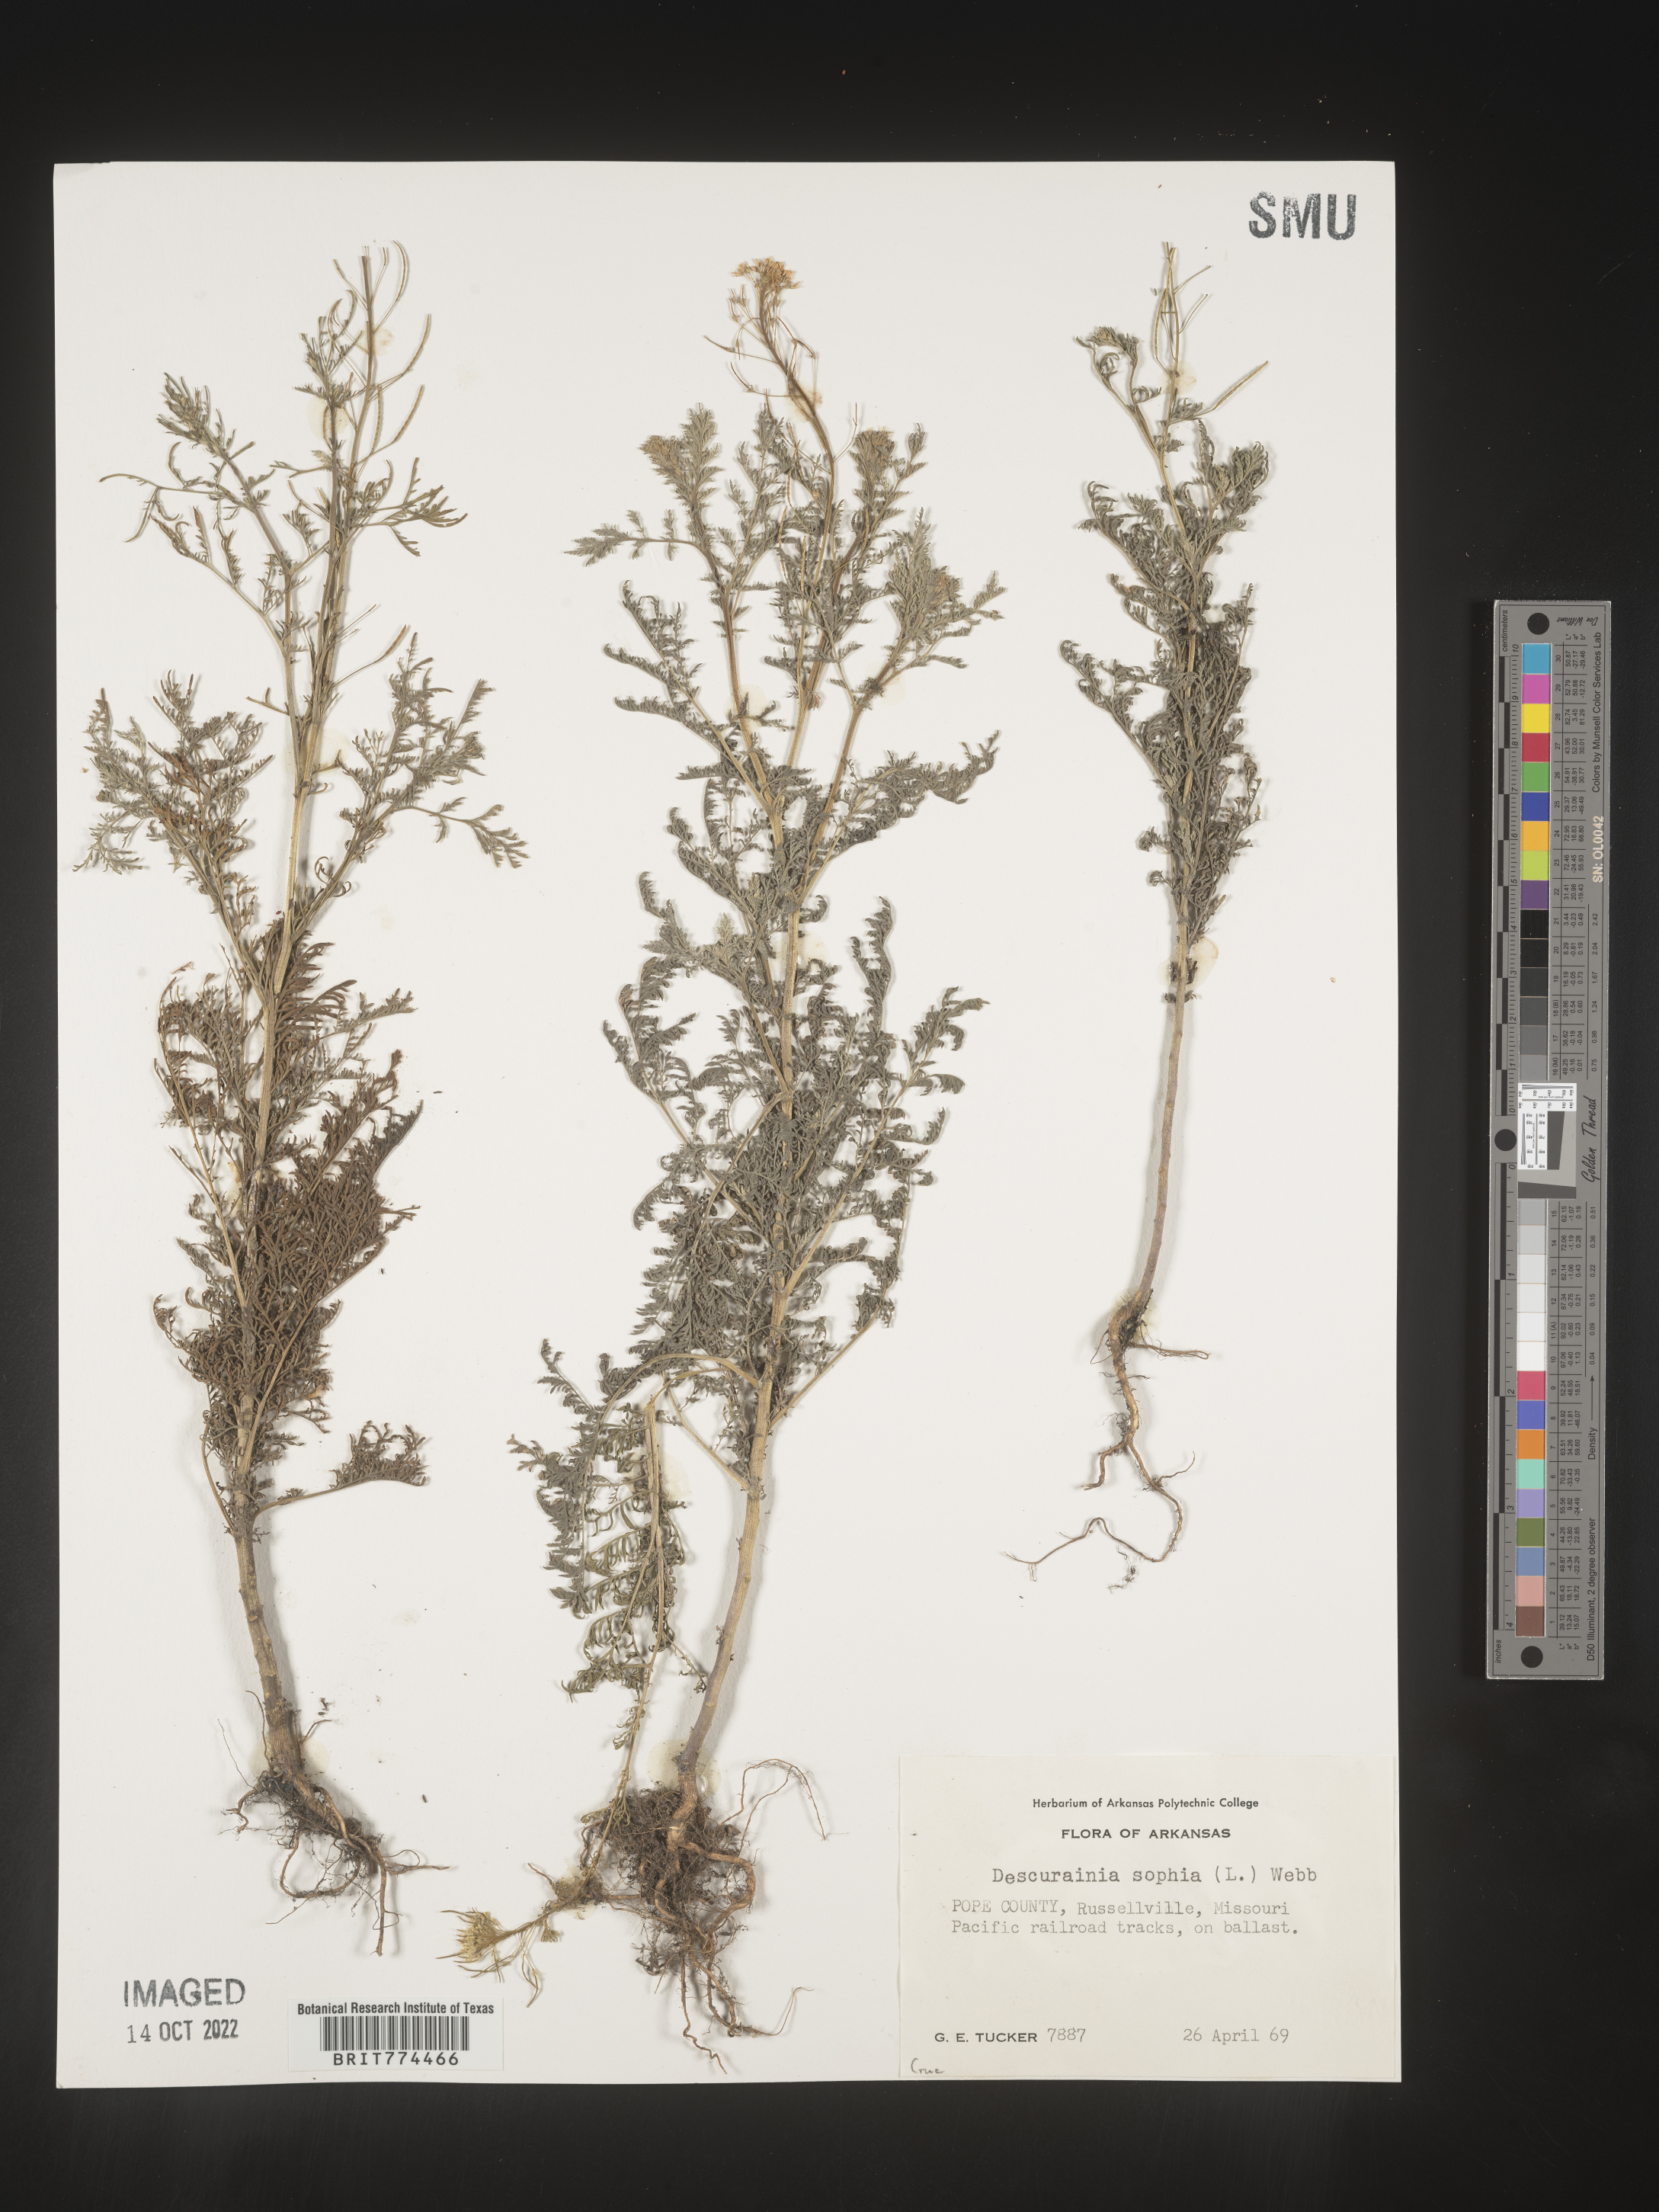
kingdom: Plantae
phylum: Tracheophyta
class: Magnoliopsida
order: Brassicales
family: Brassicaceae
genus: Descurainia
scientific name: Descurainia sophia
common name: Flixweed
